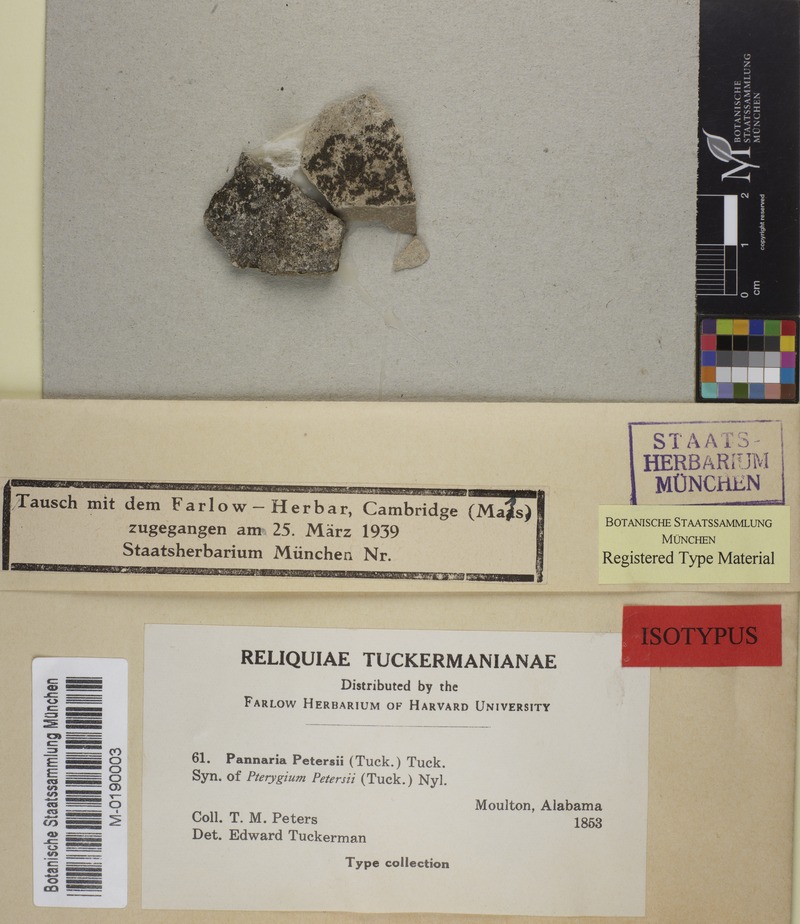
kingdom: Fungi
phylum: Ascomycota
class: Lecanoromycetes
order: Peltigerales
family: Placynthiaceae
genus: Placynthium
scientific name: Placynthium petersii
